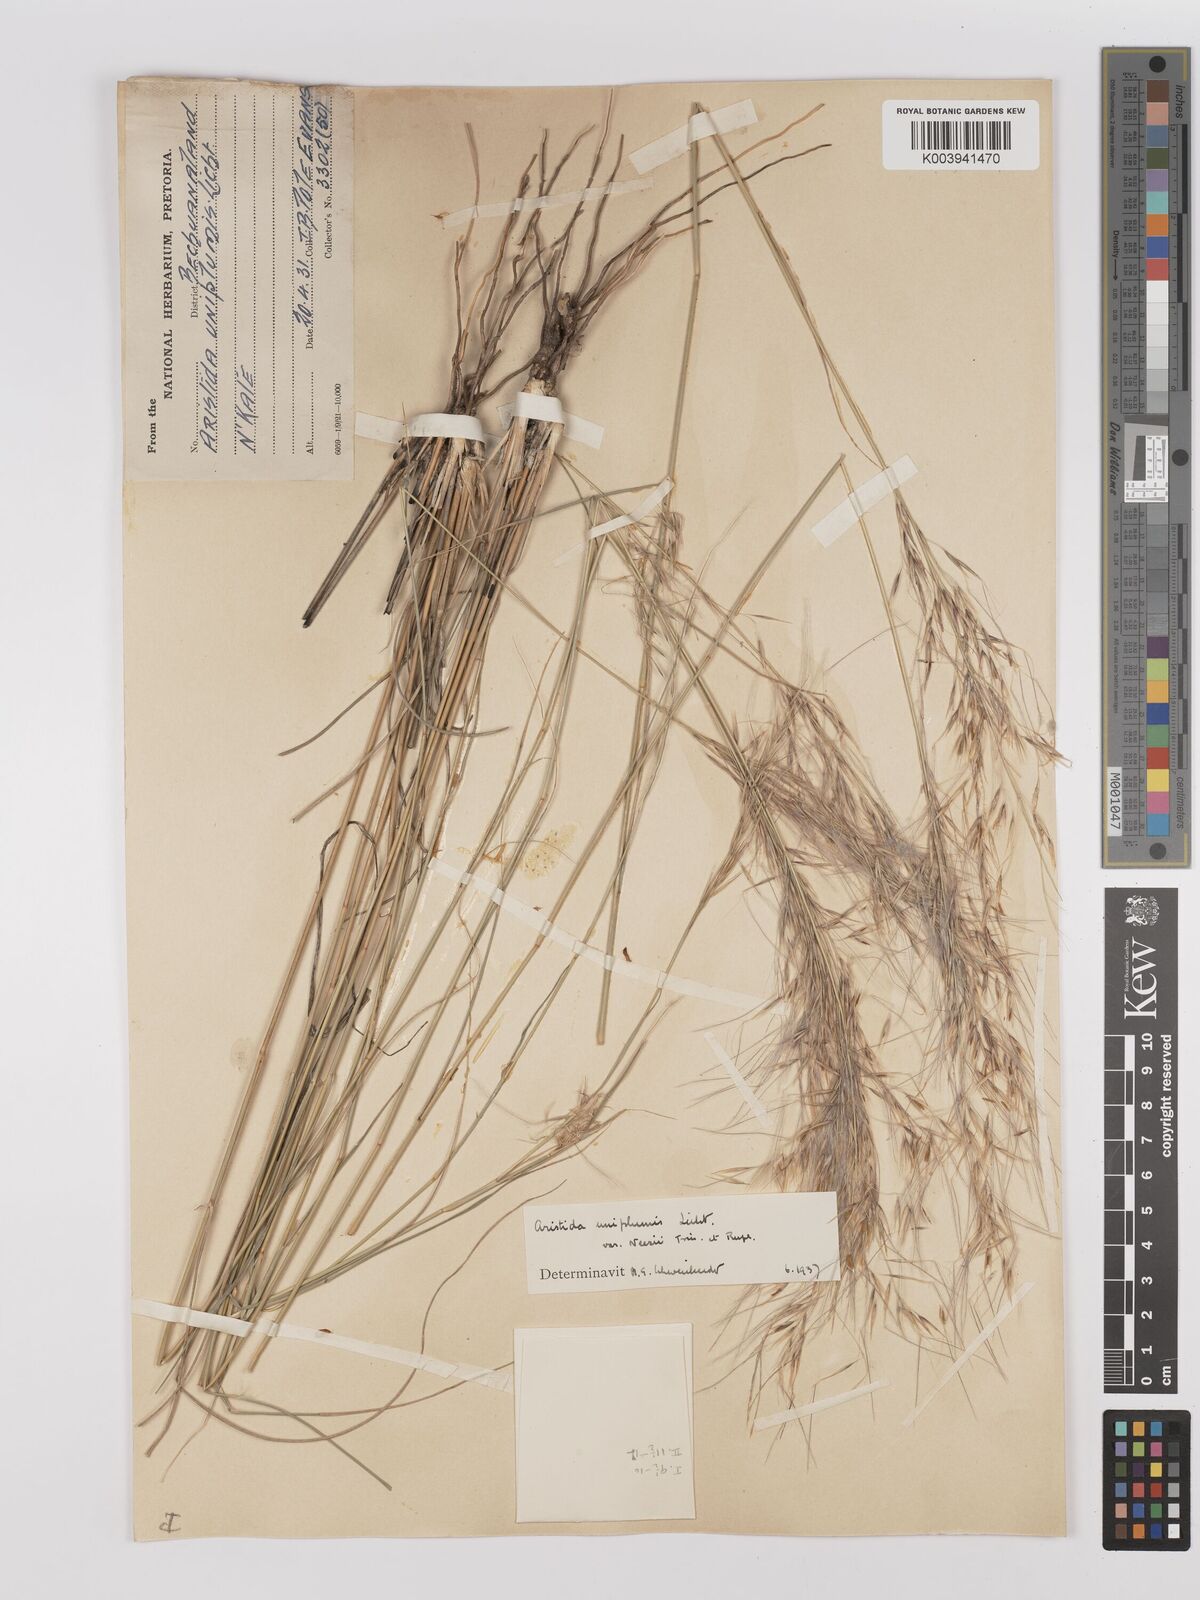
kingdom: Plantae
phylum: Tracheophyta
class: Liliopsida
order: Poales
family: Poaceae
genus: Stipagrostis
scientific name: Stipagrostis uniplumis
